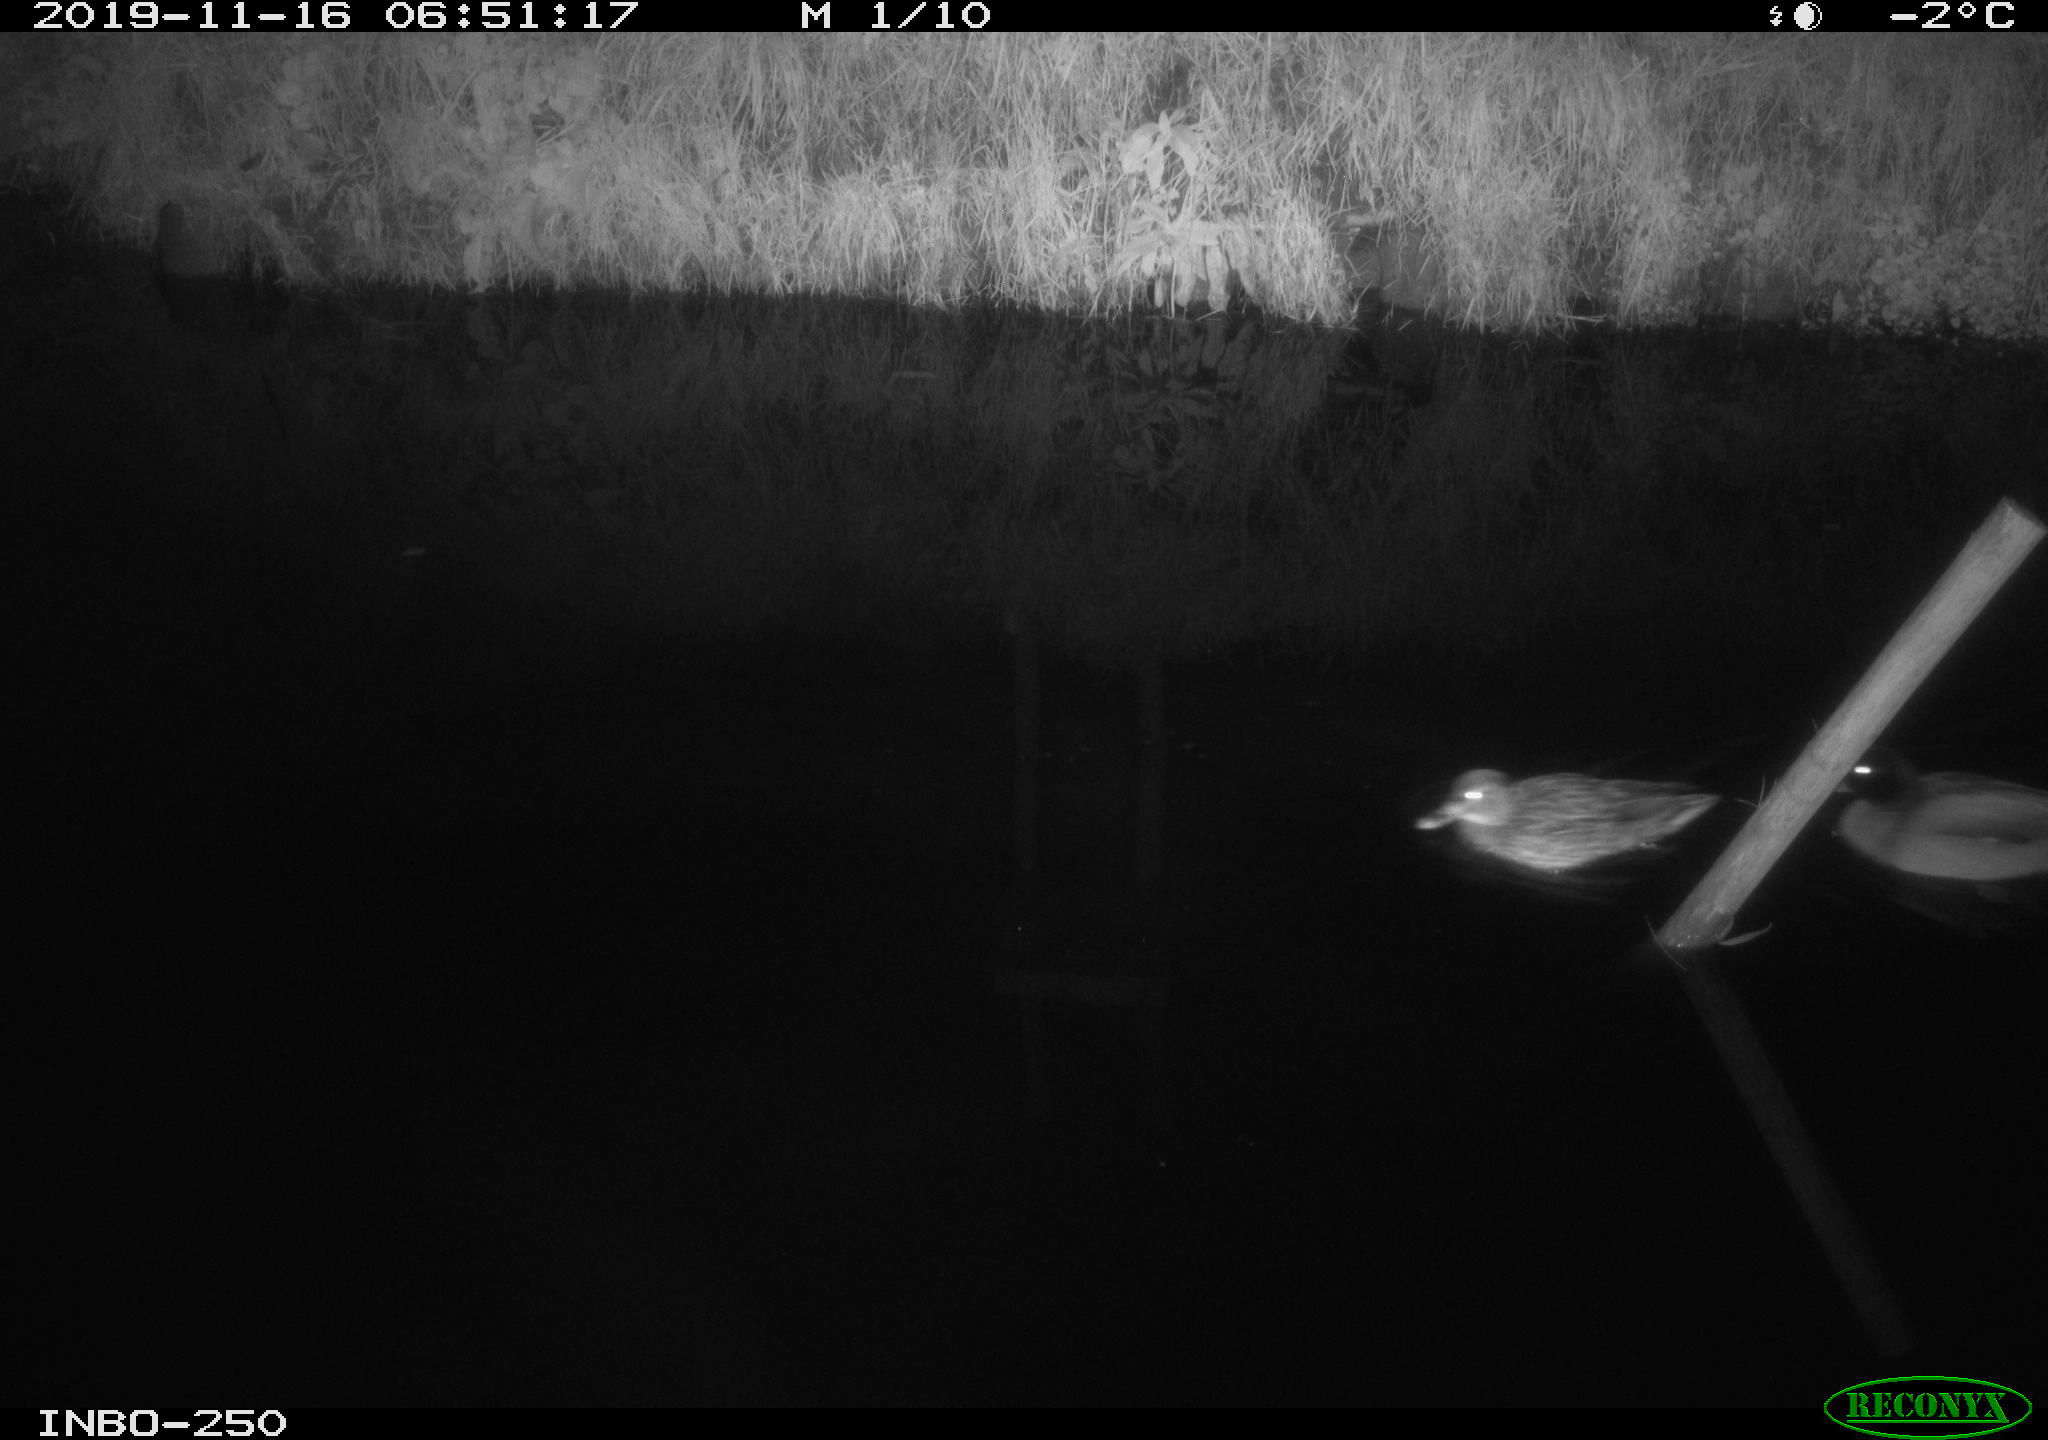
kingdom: Animalia
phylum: Chordata
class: Aves
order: Anseriformes
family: Anatidae
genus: Anas
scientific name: Anas platyrhynchos
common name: Mallard
